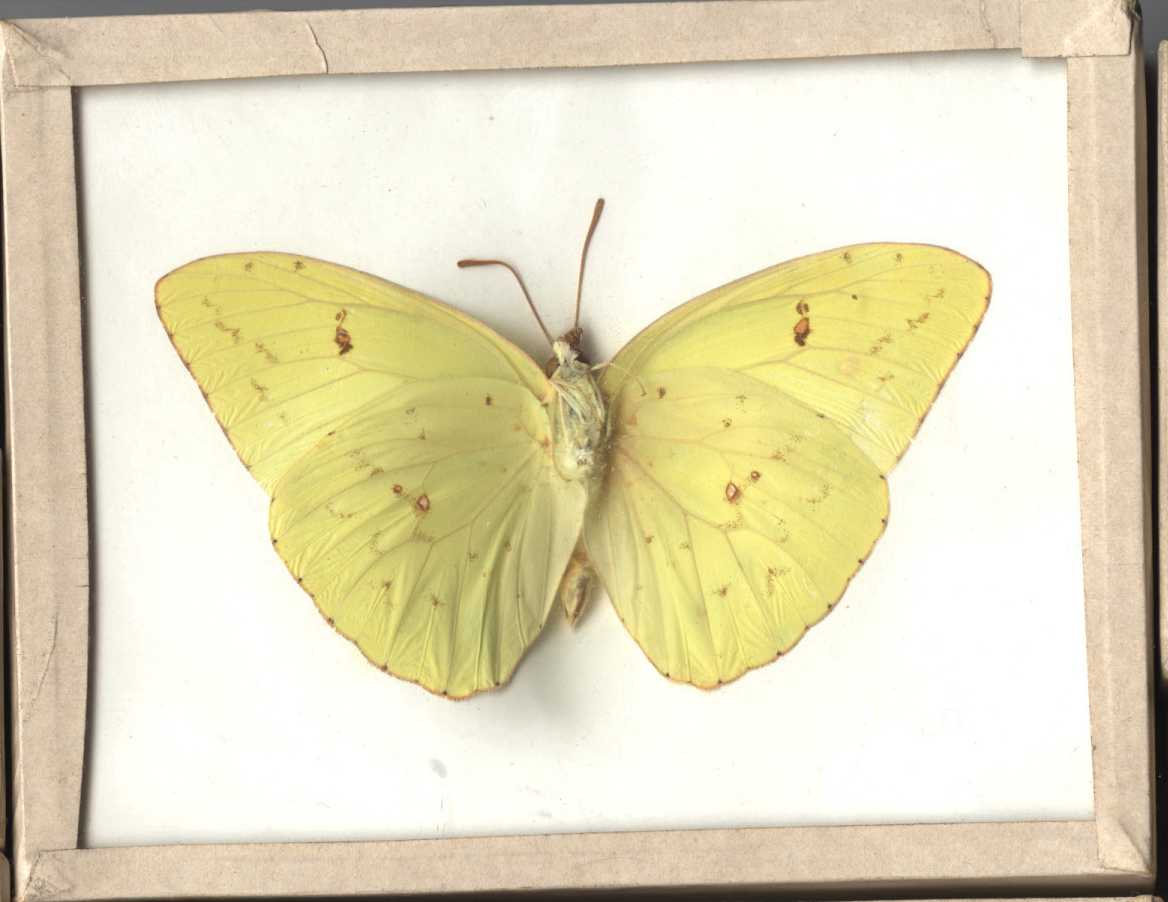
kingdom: Animalia
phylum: Arthropoda
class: Insecta
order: Lepidoptera
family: Pieridae
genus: Phoebis
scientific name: Phoebis sennae
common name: Cloudless Sulphur
